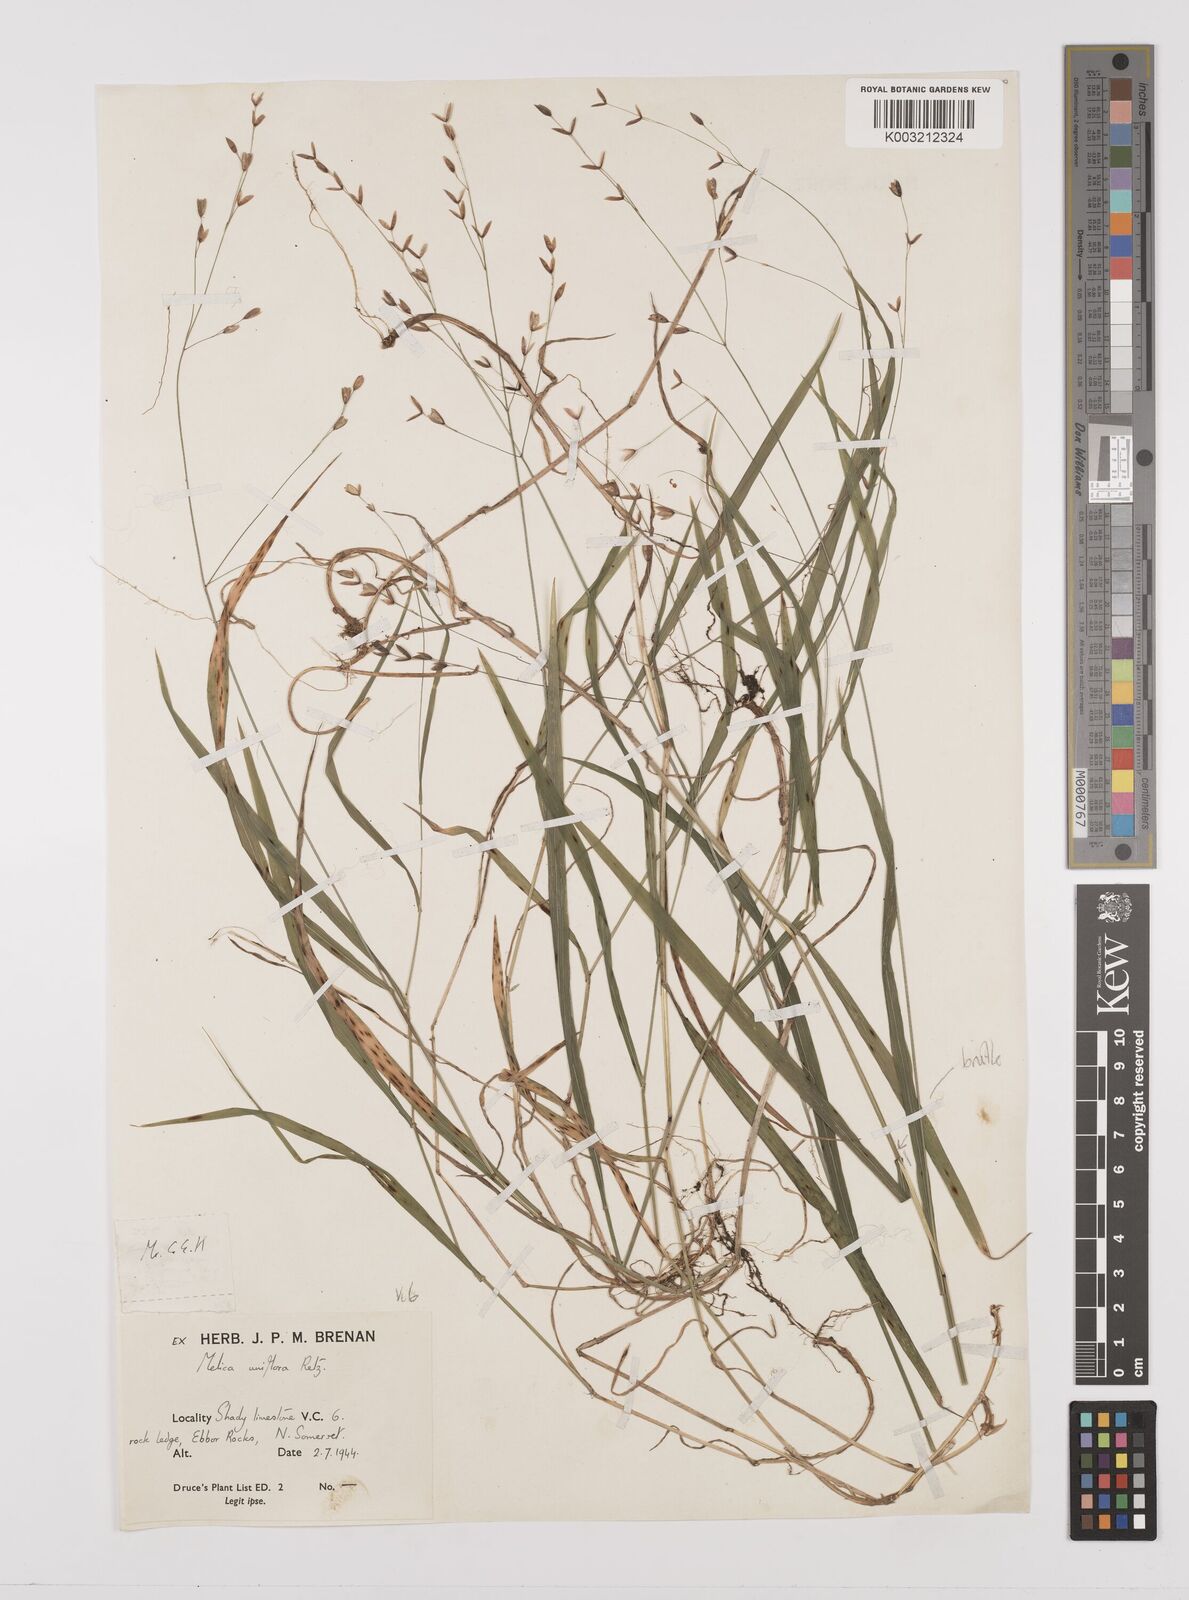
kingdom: Plantae
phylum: Tracheophyta
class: Liliopsida
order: Poales
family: Poaceae
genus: Melica
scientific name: Melica uniflora
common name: Wood melick
